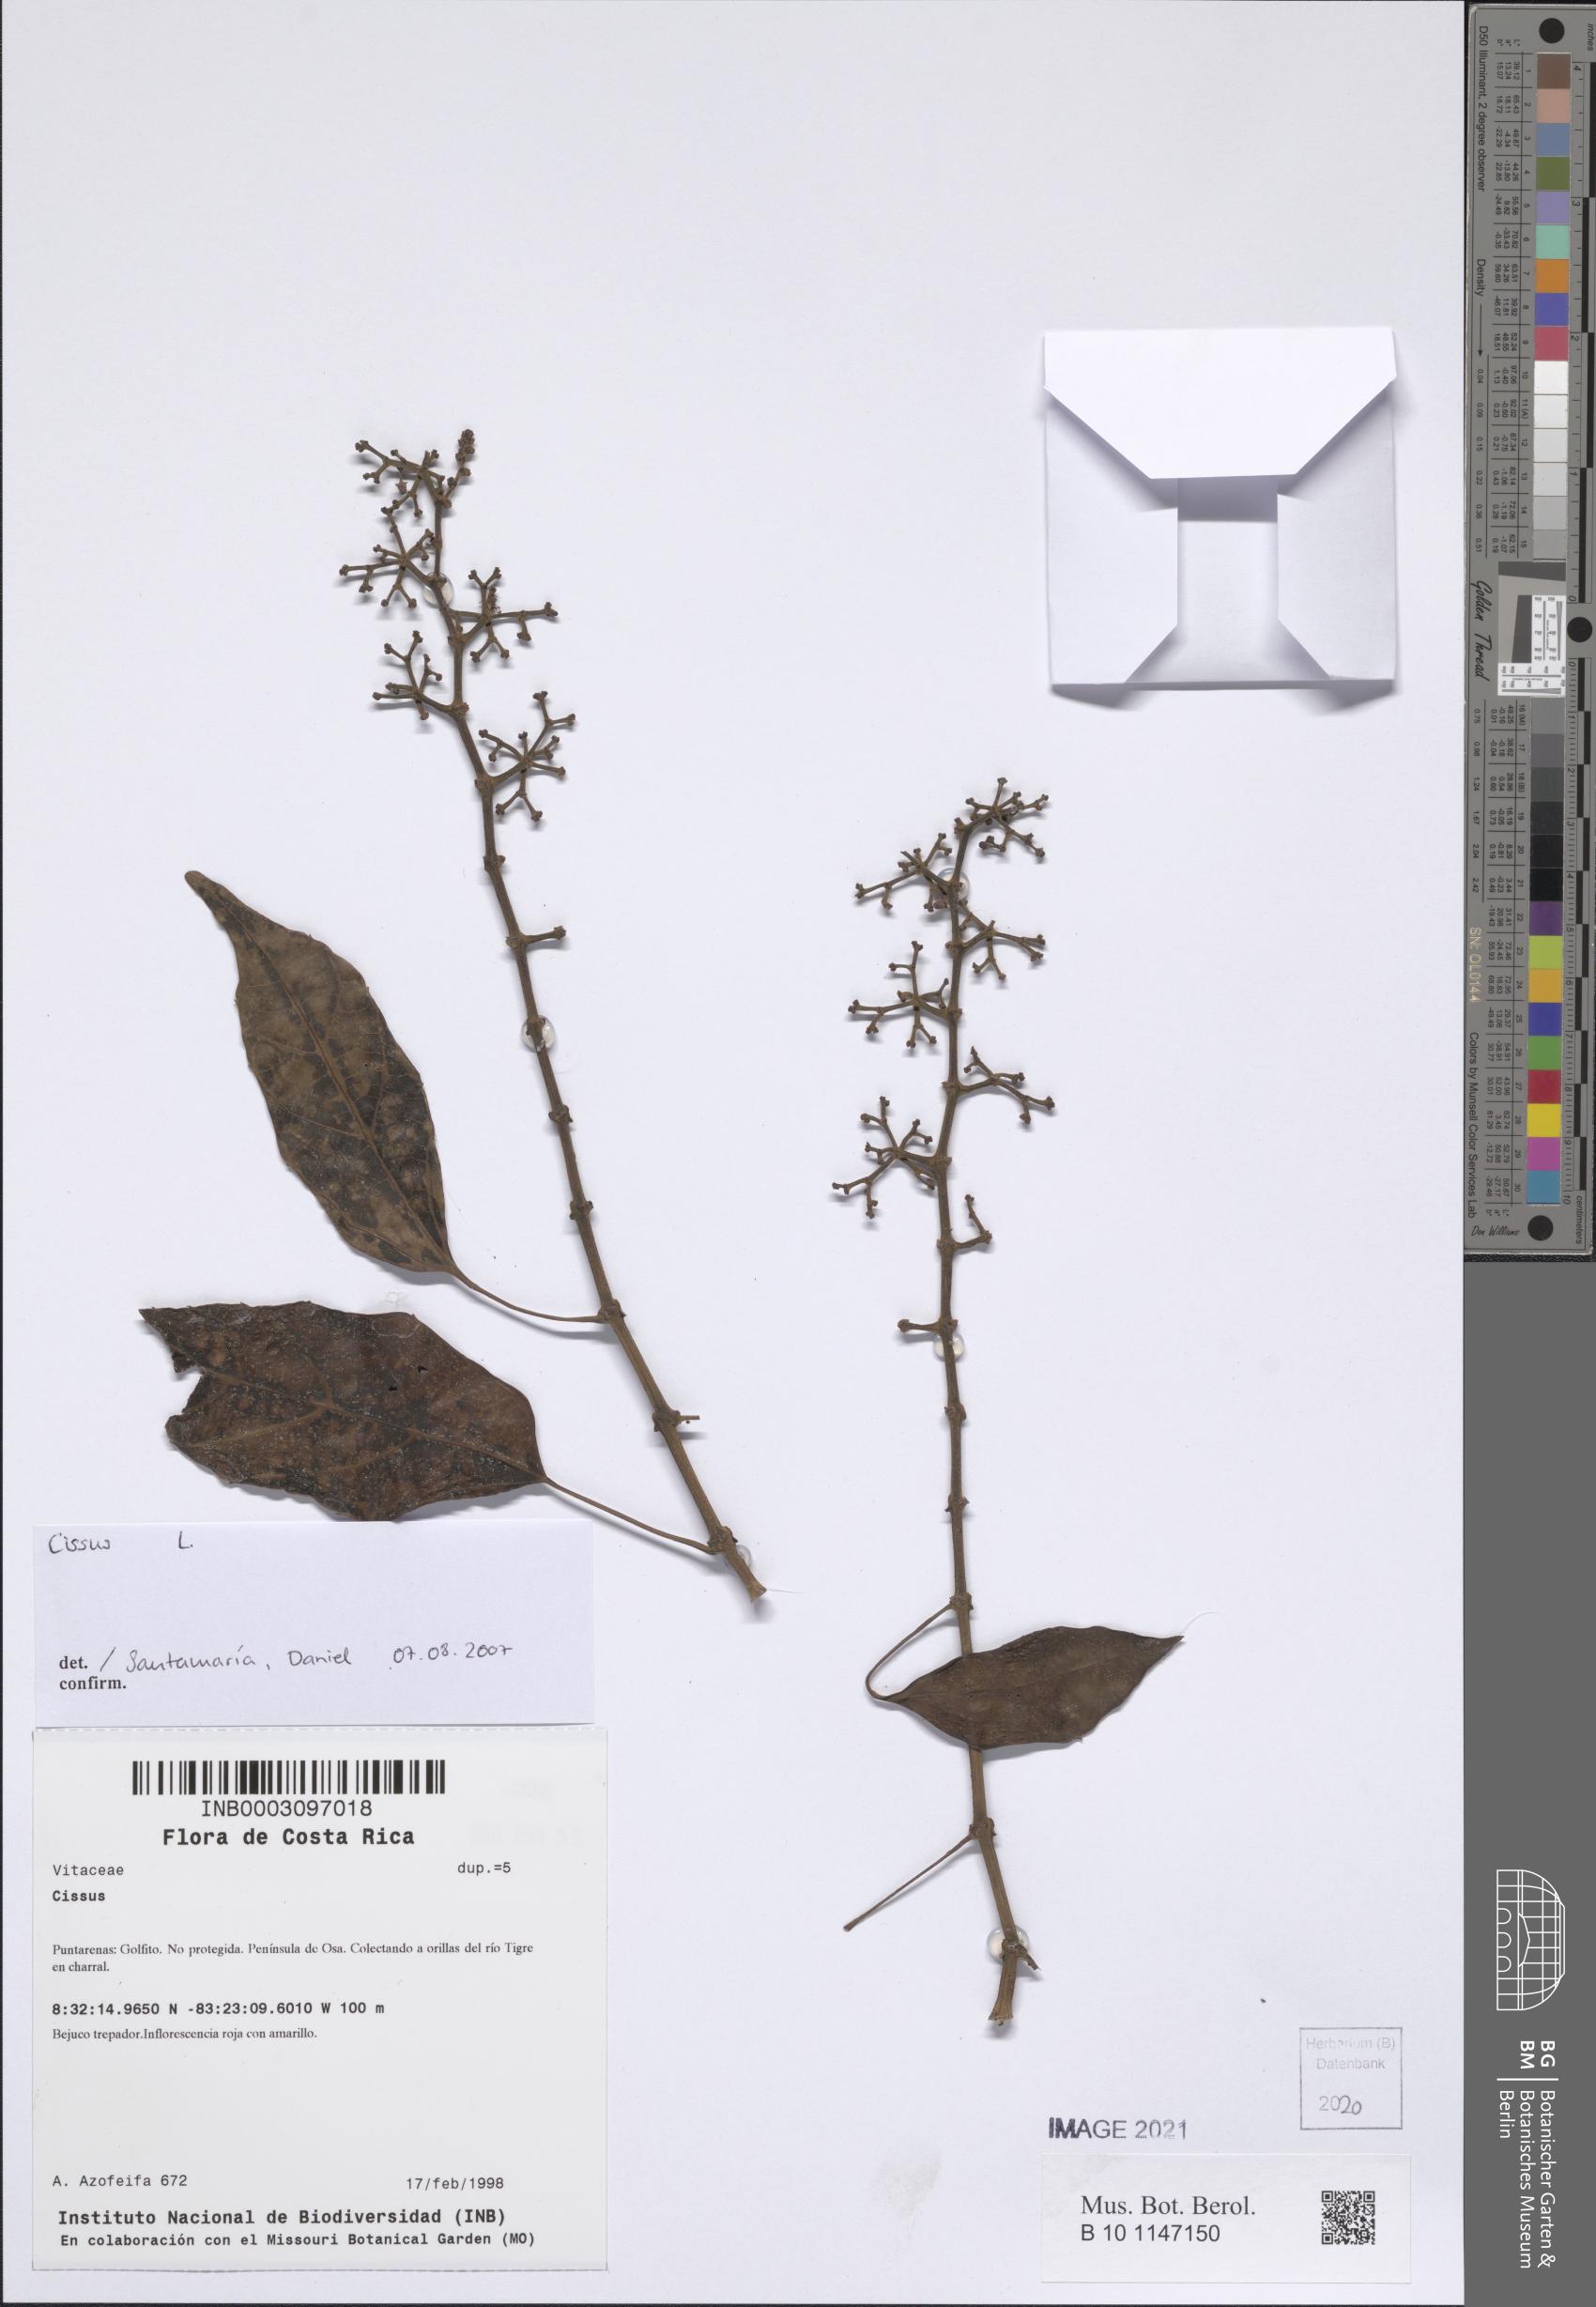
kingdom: Plantae
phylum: Tracheophyta
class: Magnoliopsida
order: Vitales
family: Vitaceae
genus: Cissus
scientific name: Cissus
